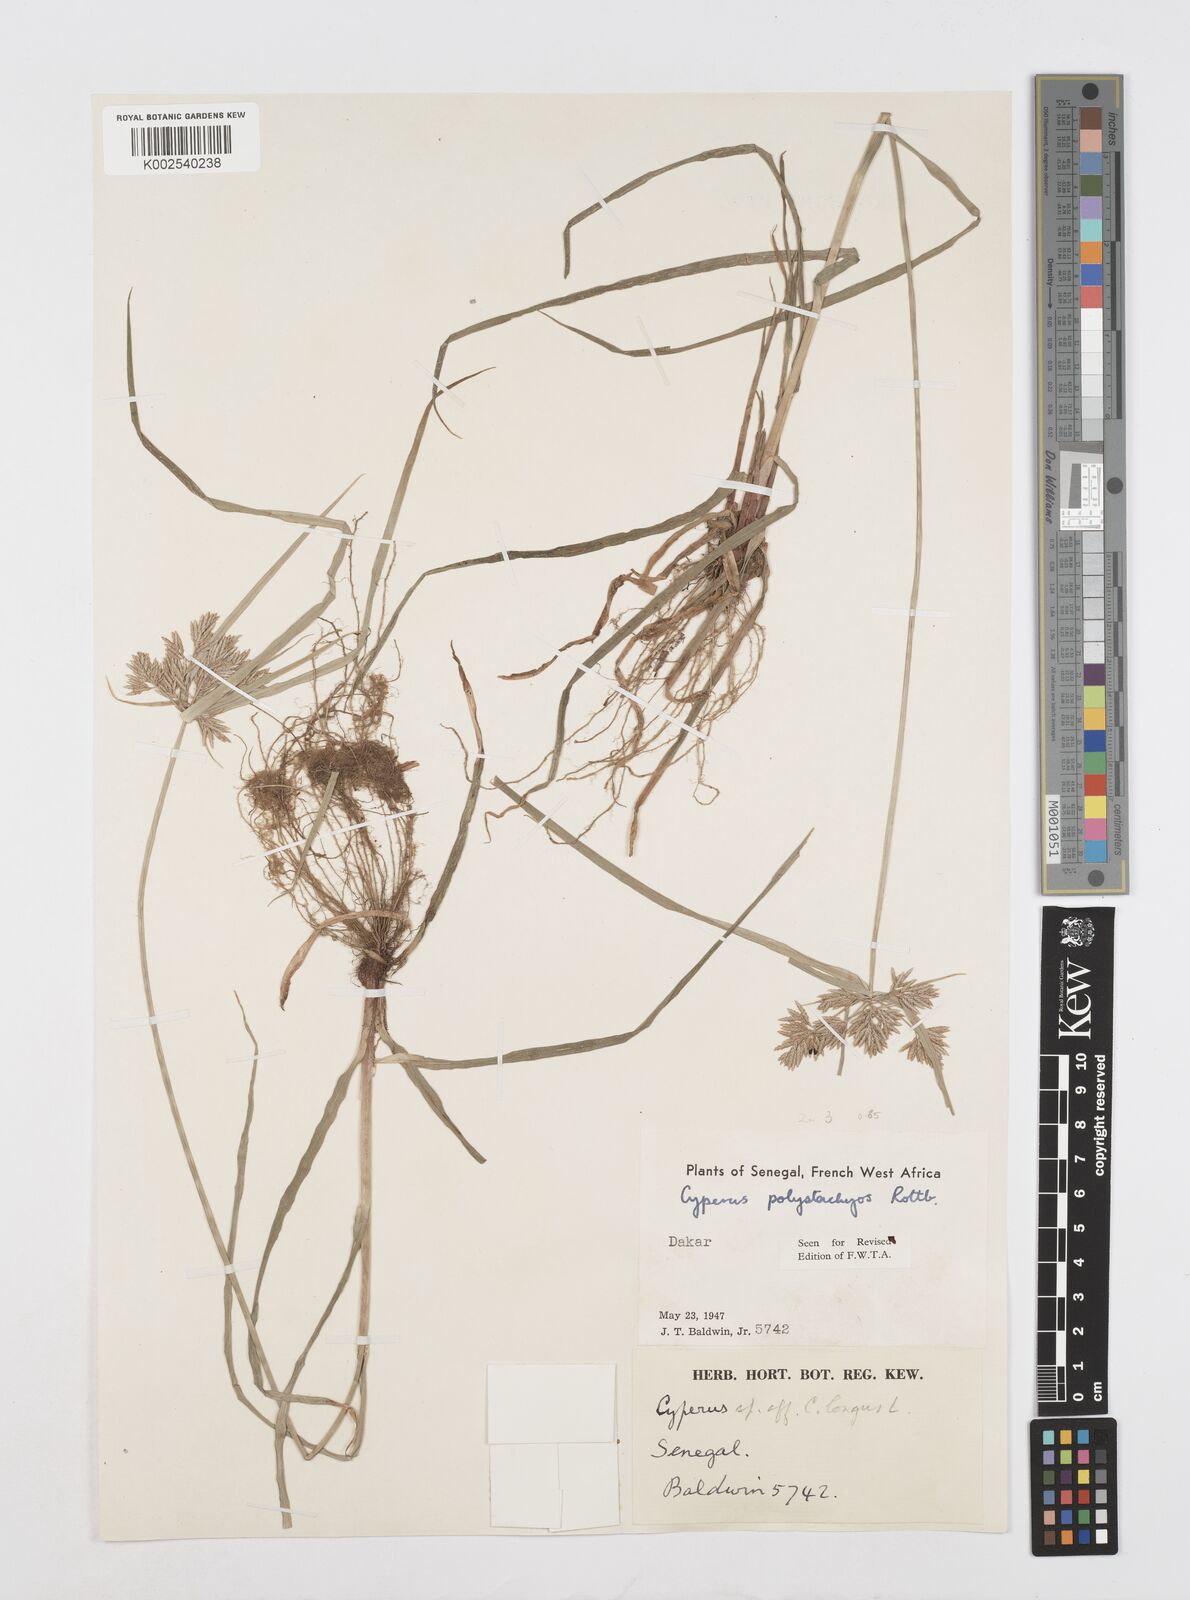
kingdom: Plantae
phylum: Tracheophyta
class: Liliopsida
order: Poales
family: Cyperaceae
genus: Cyperus
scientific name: Cyperus polystachyos
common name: Bunchy flat sedge
